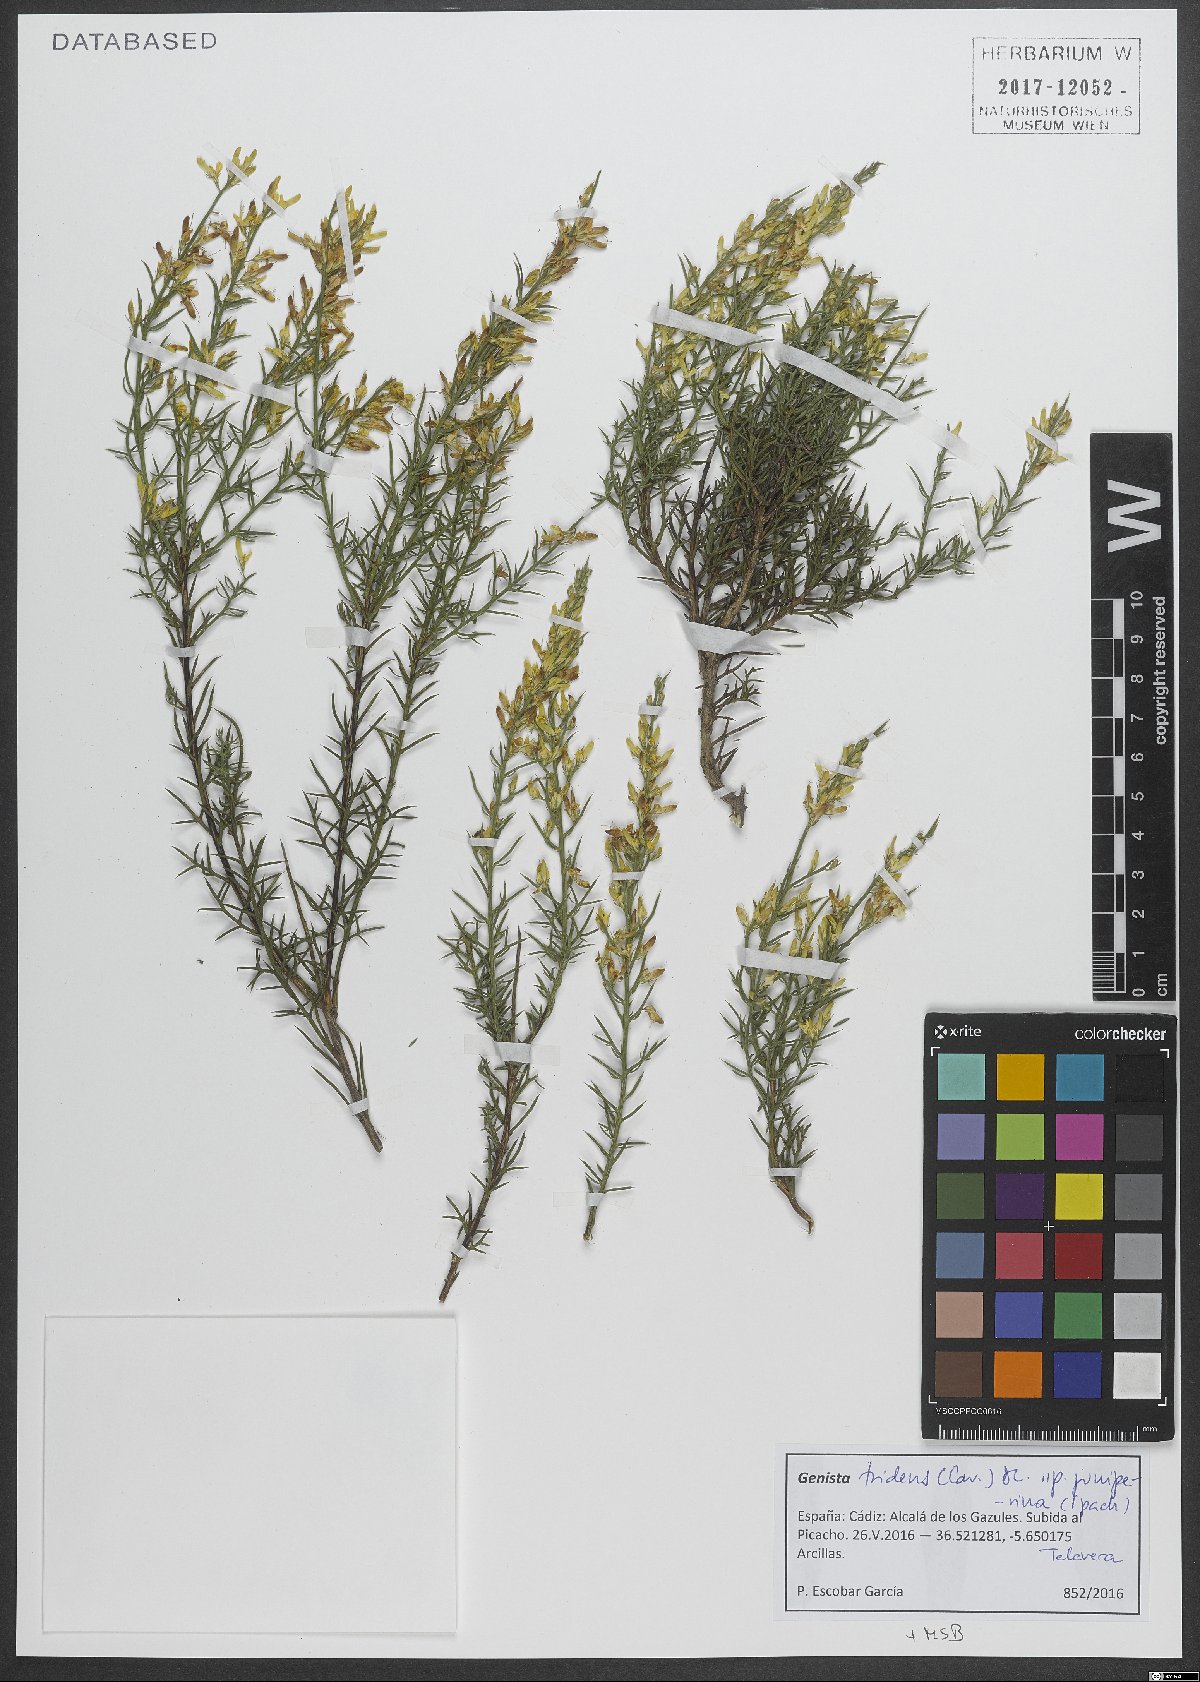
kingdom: Plantae
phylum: Tracheophyta
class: Magnoliopsida
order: Fabales
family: Fabaceae
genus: Genista
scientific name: Genista tridens
